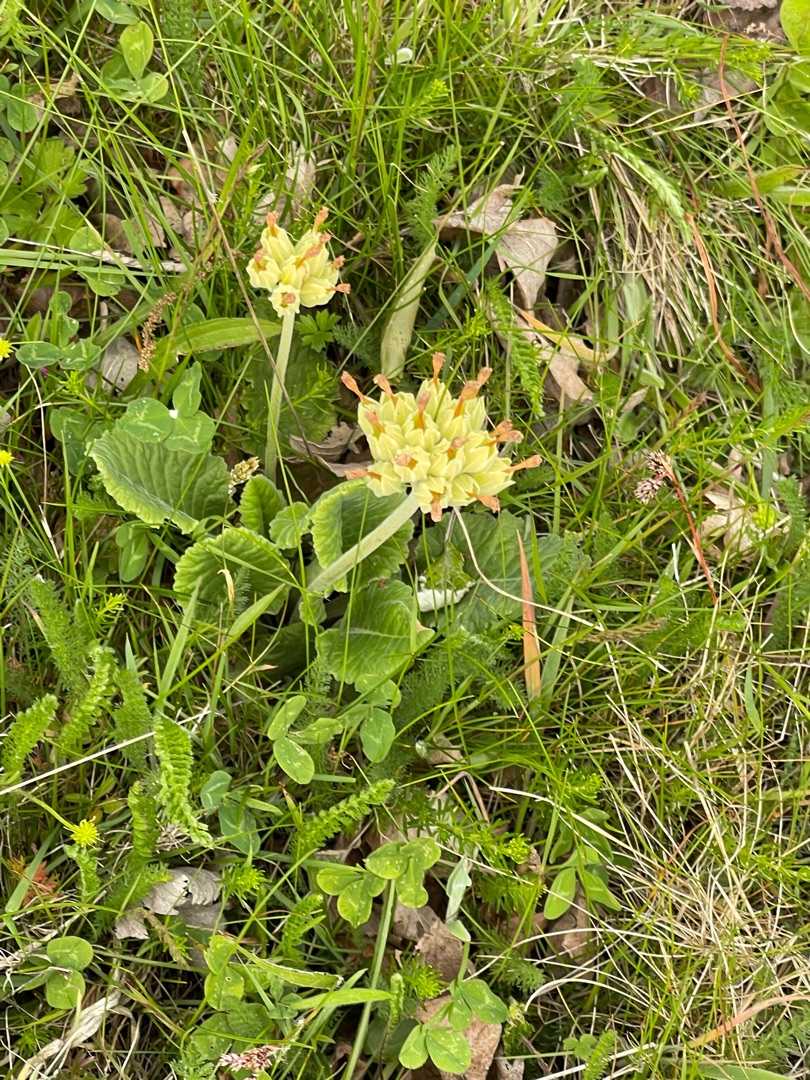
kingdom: Plantae
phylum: Tracheophyta
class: Magnoliopsida
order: Ericales
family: Primulaceae
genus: Primula
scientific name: Primula veris
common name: Hulkravet kodriver
